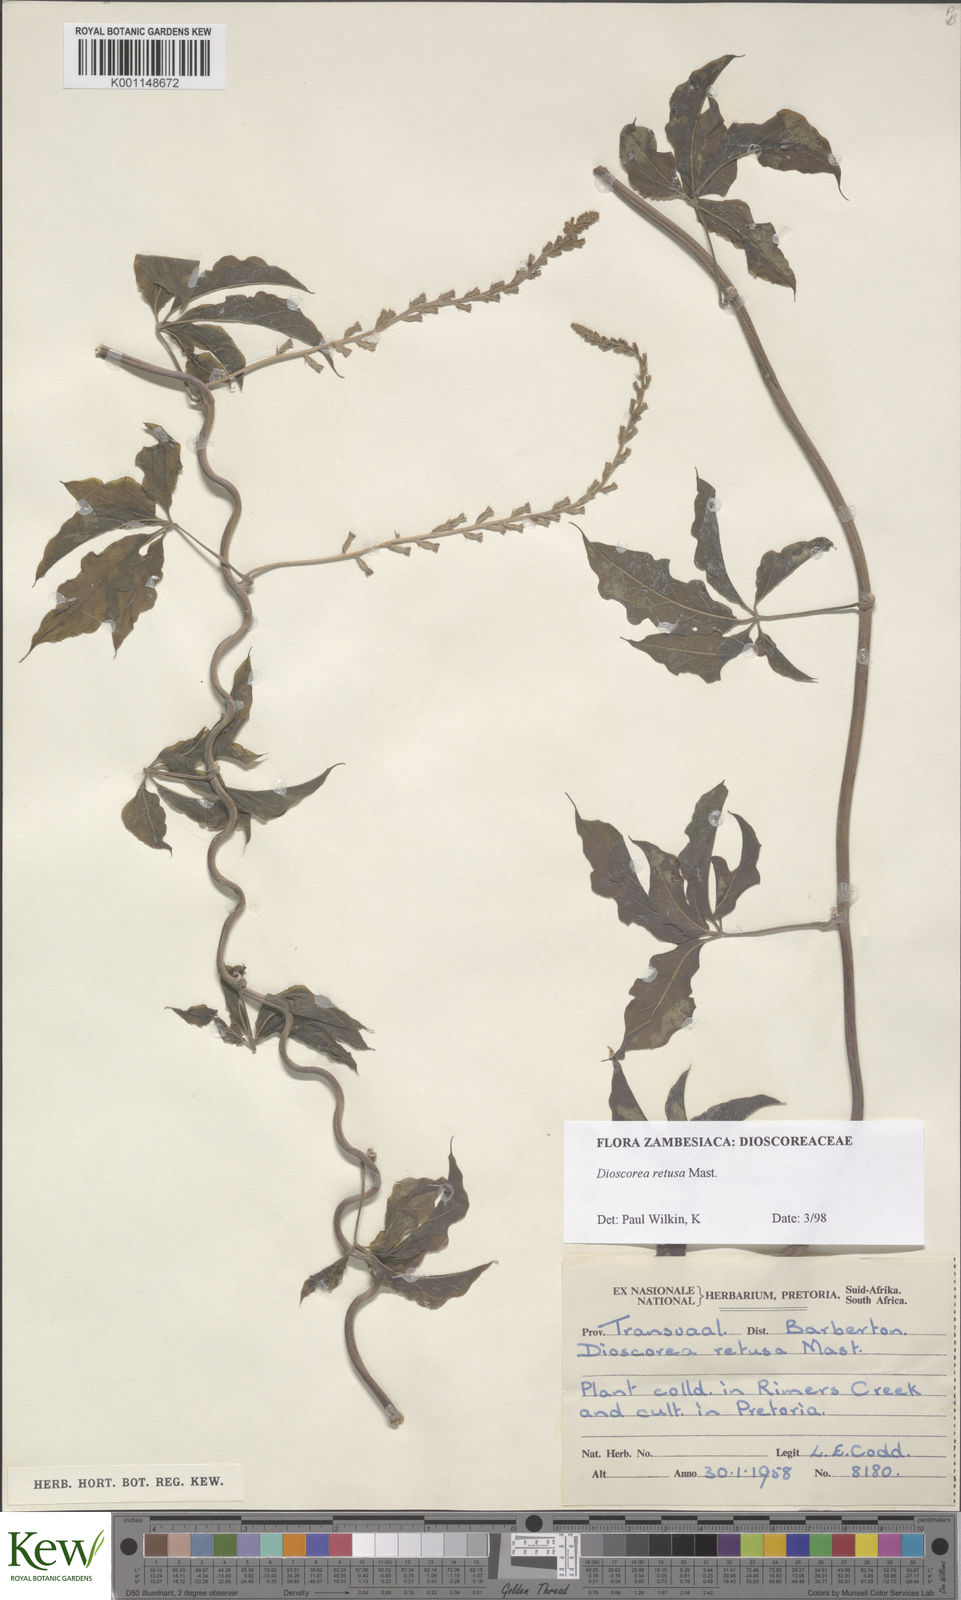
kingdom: Plantae
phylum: Tracheophyta
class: Liliopsida
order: Dioscoreales
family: Dioscoreaceae
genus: Dioscorea
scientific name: Dioscorea retusa
